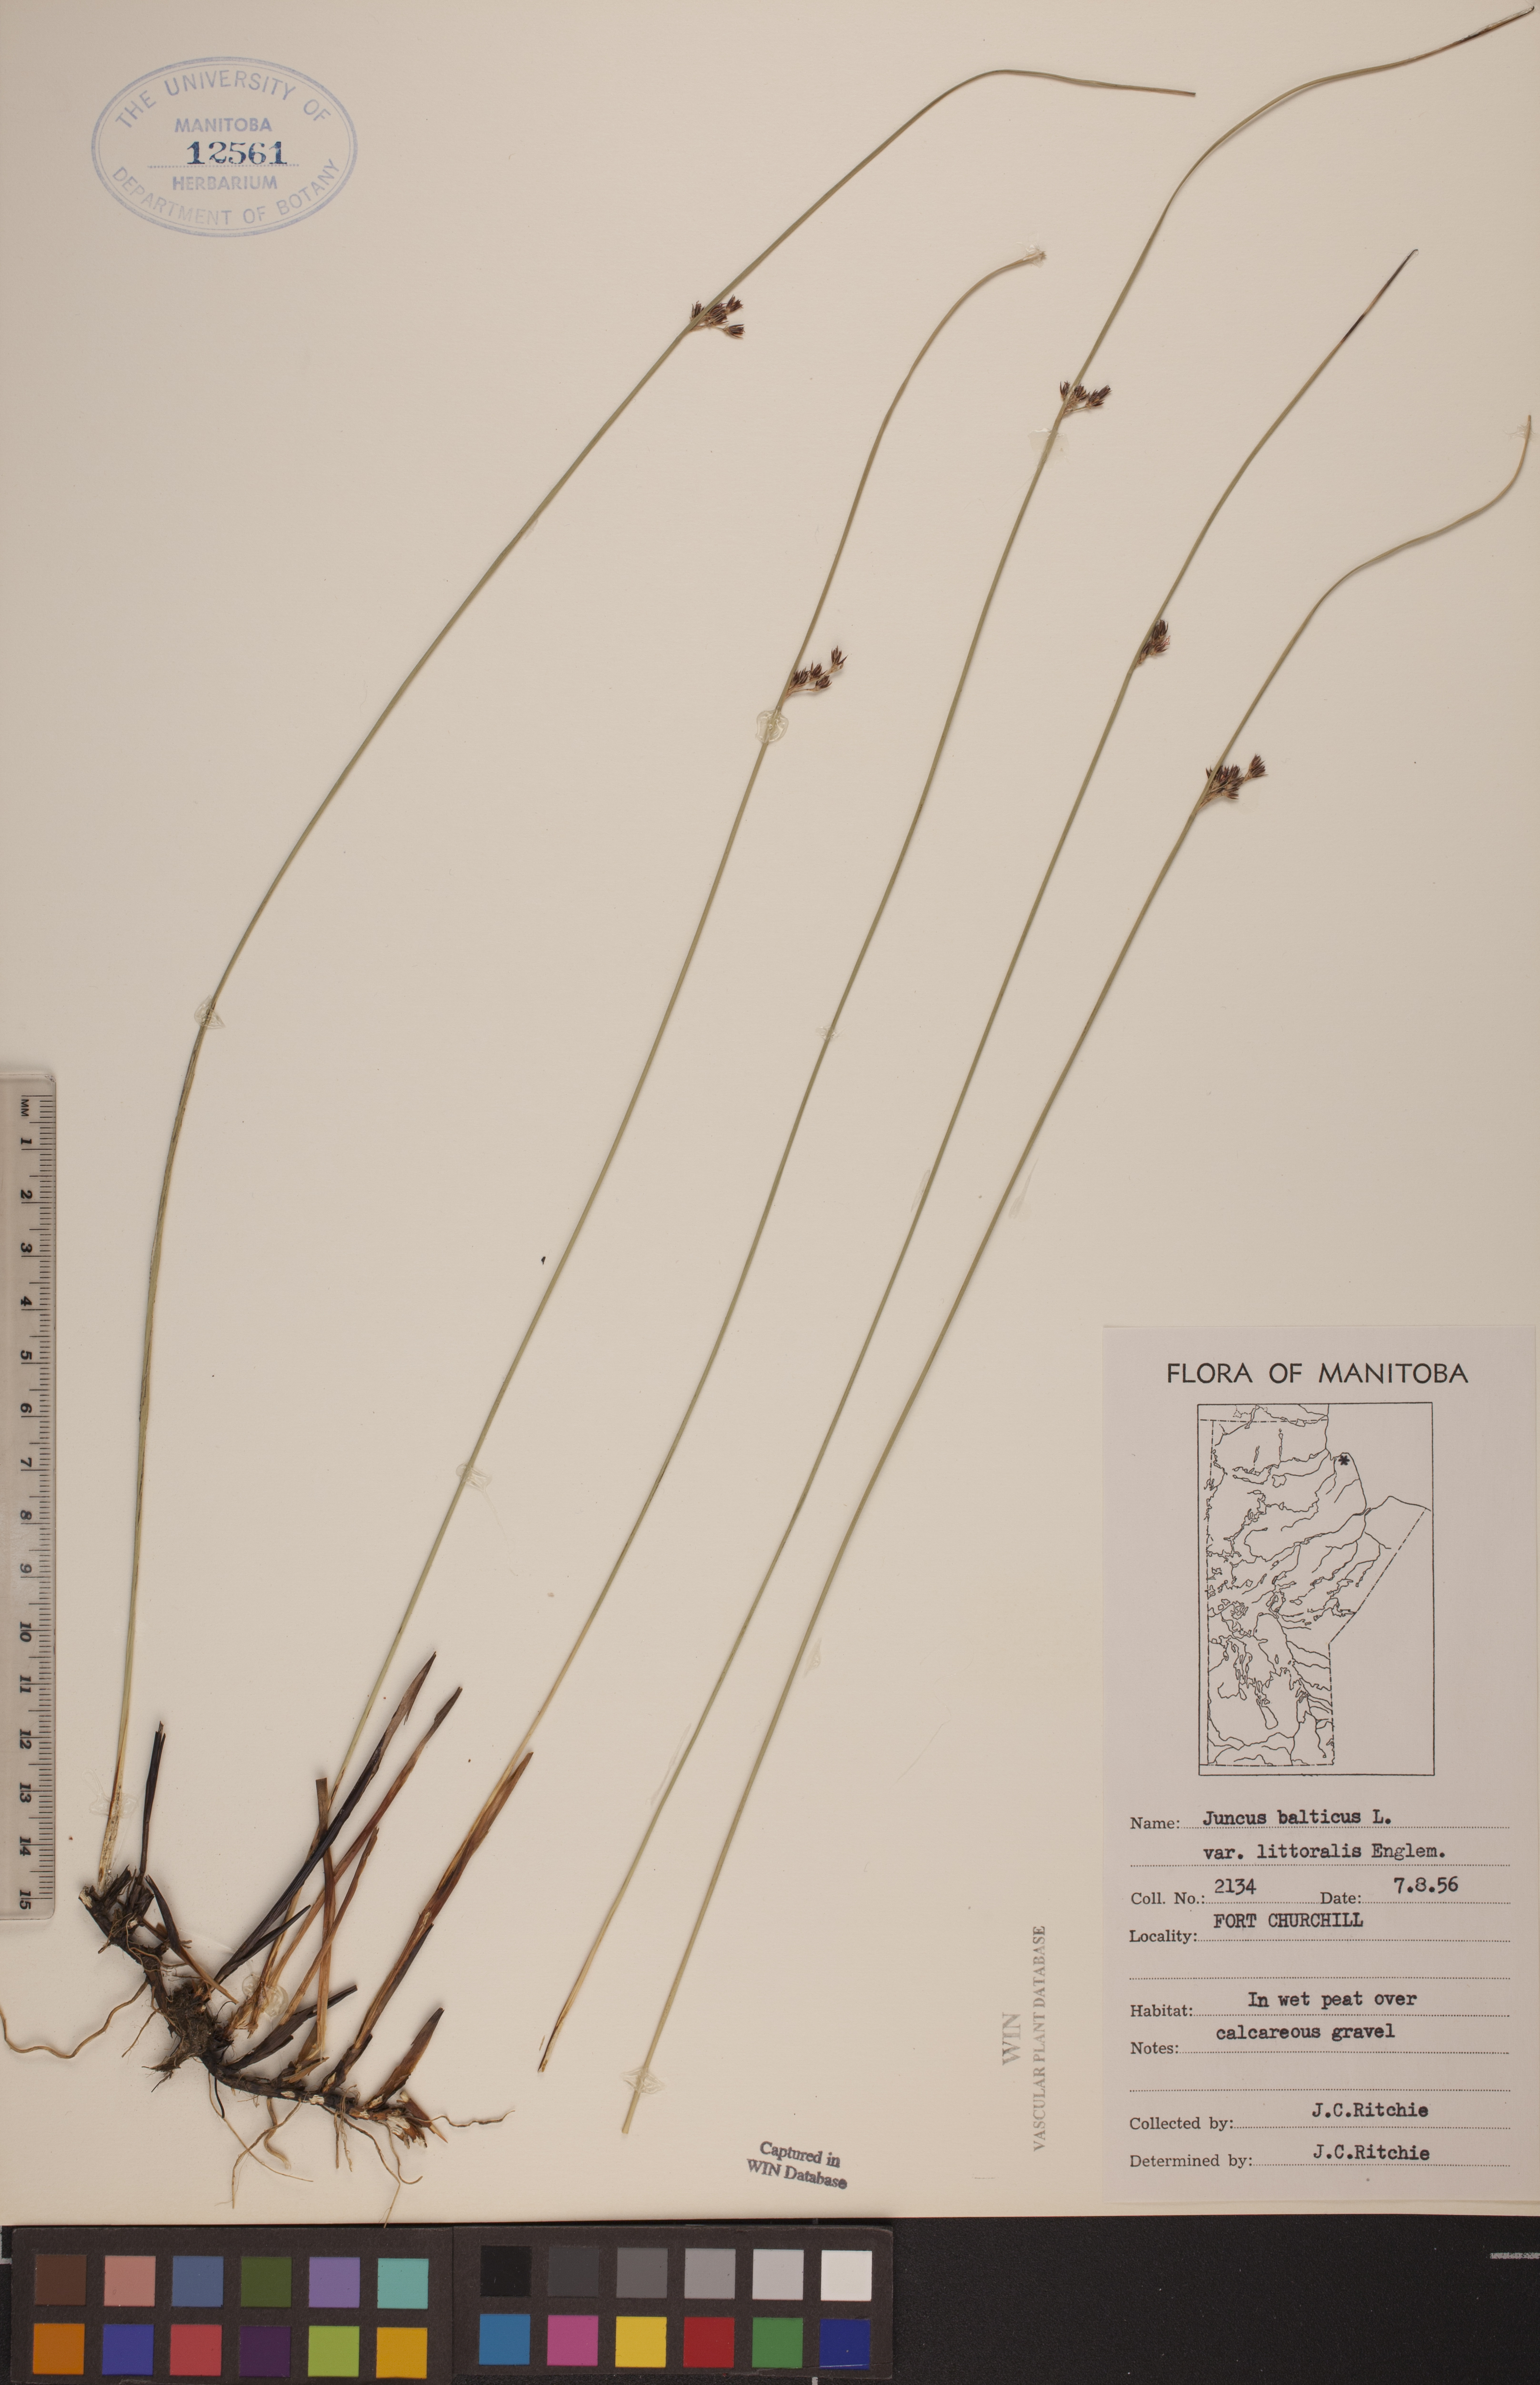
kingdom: Plantae
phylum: Tracheophyta
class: Liliopsida
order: Poales
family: Juncaceae
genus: Juncus
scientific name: Juncus balticus
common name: Baltic rush
